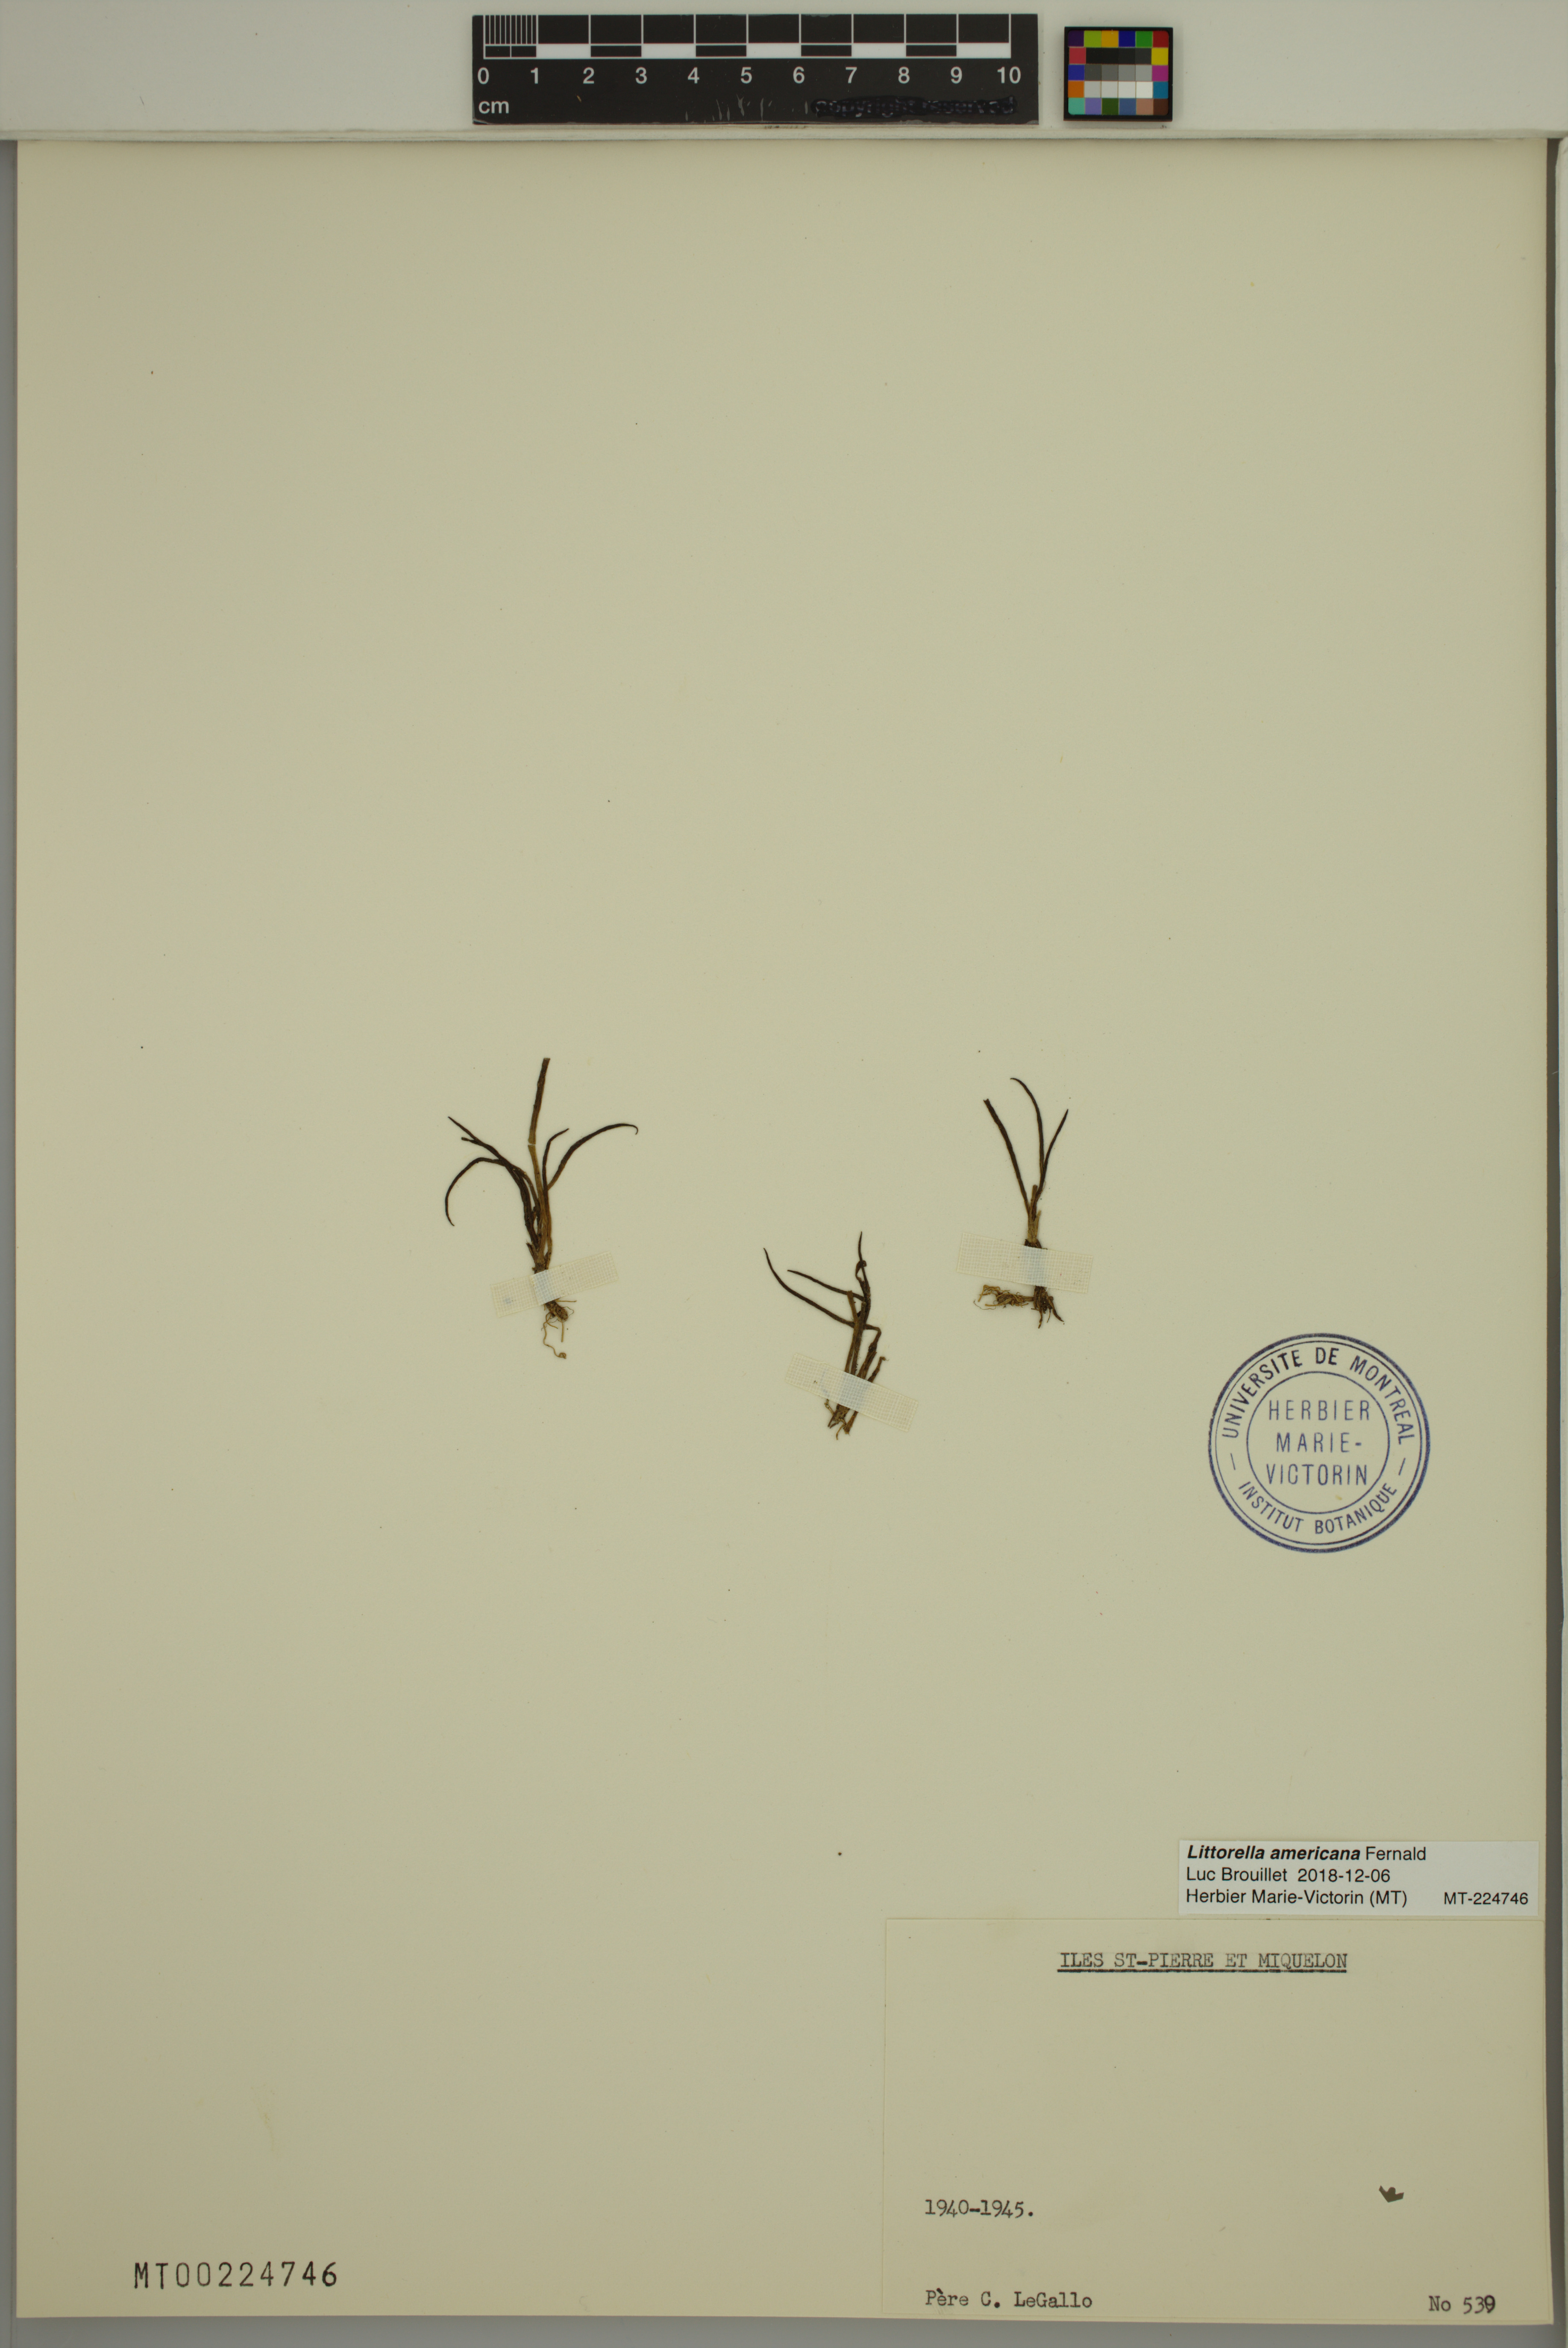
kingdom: Plantae
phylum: Tracheophyta
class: Magnoliopsida
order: Lamiales
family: Plantaginaceae
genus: Littorella
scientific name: Littorella americana
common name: American littorella
